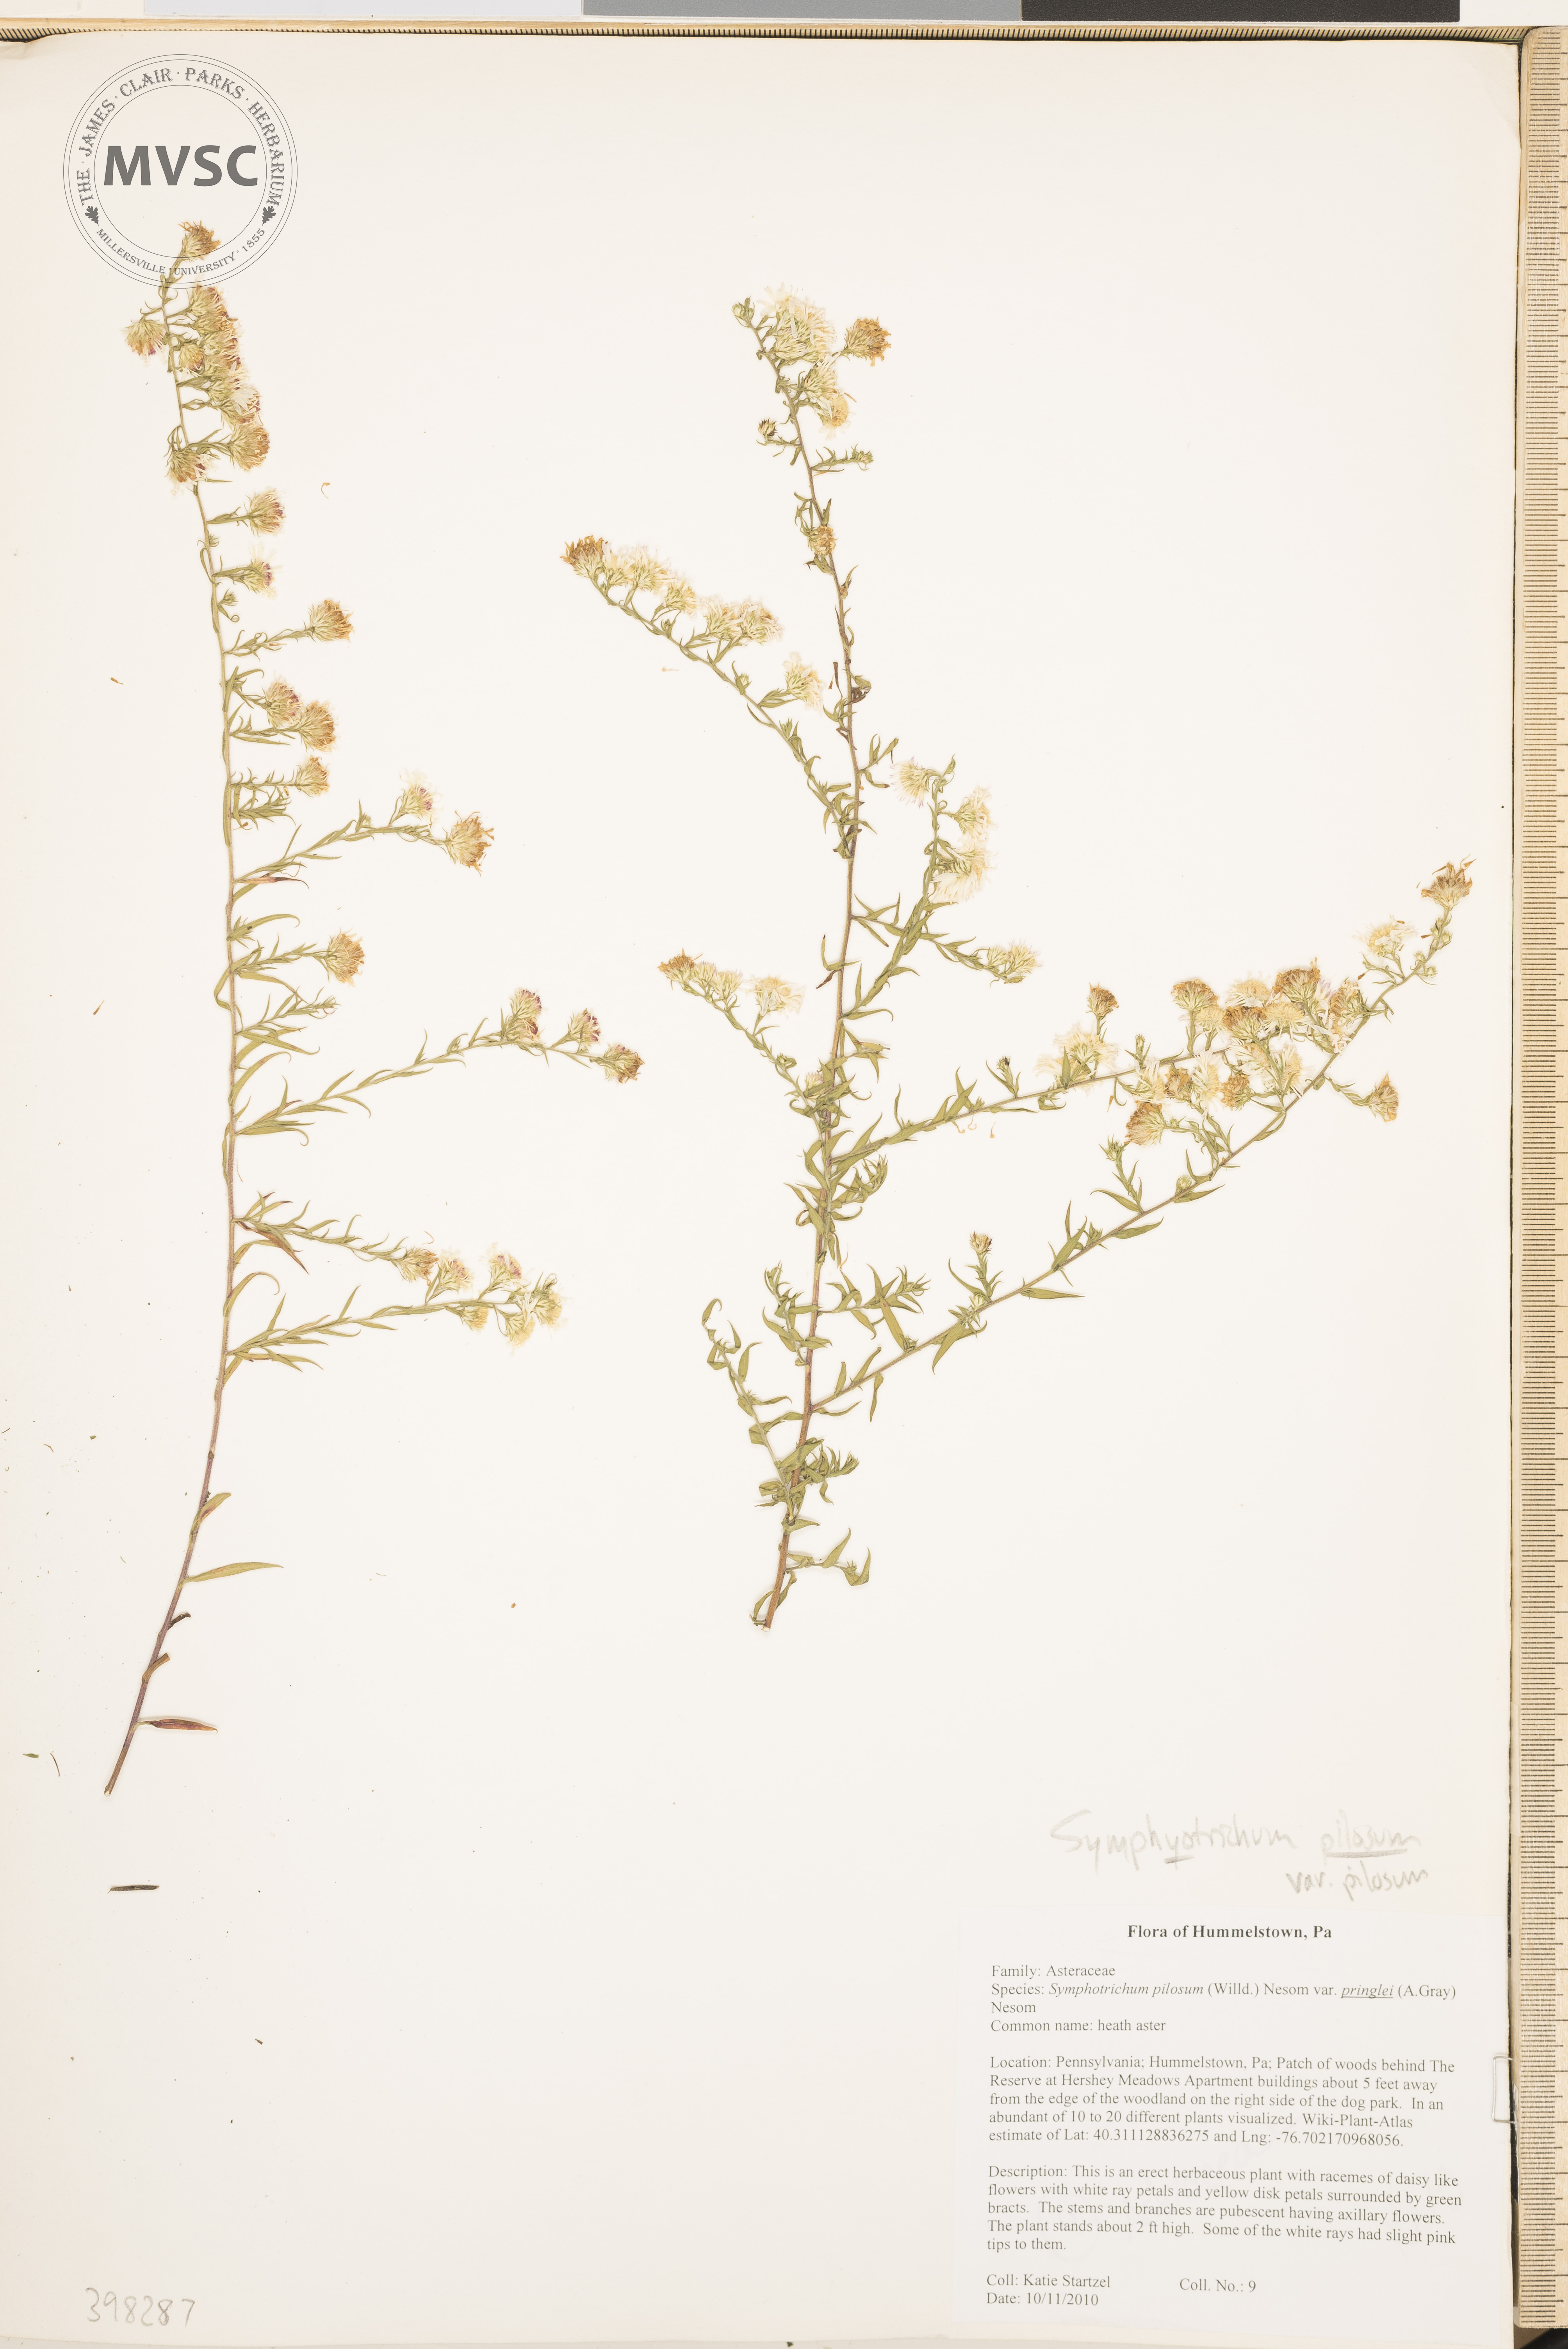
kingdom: Plantae
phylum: Tracheophyta
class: Magnoliopsida
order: Asterales
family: Asteraceae
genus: Symphyotrichum
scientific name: Symphyotrichum pilosum
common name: Small white aster
